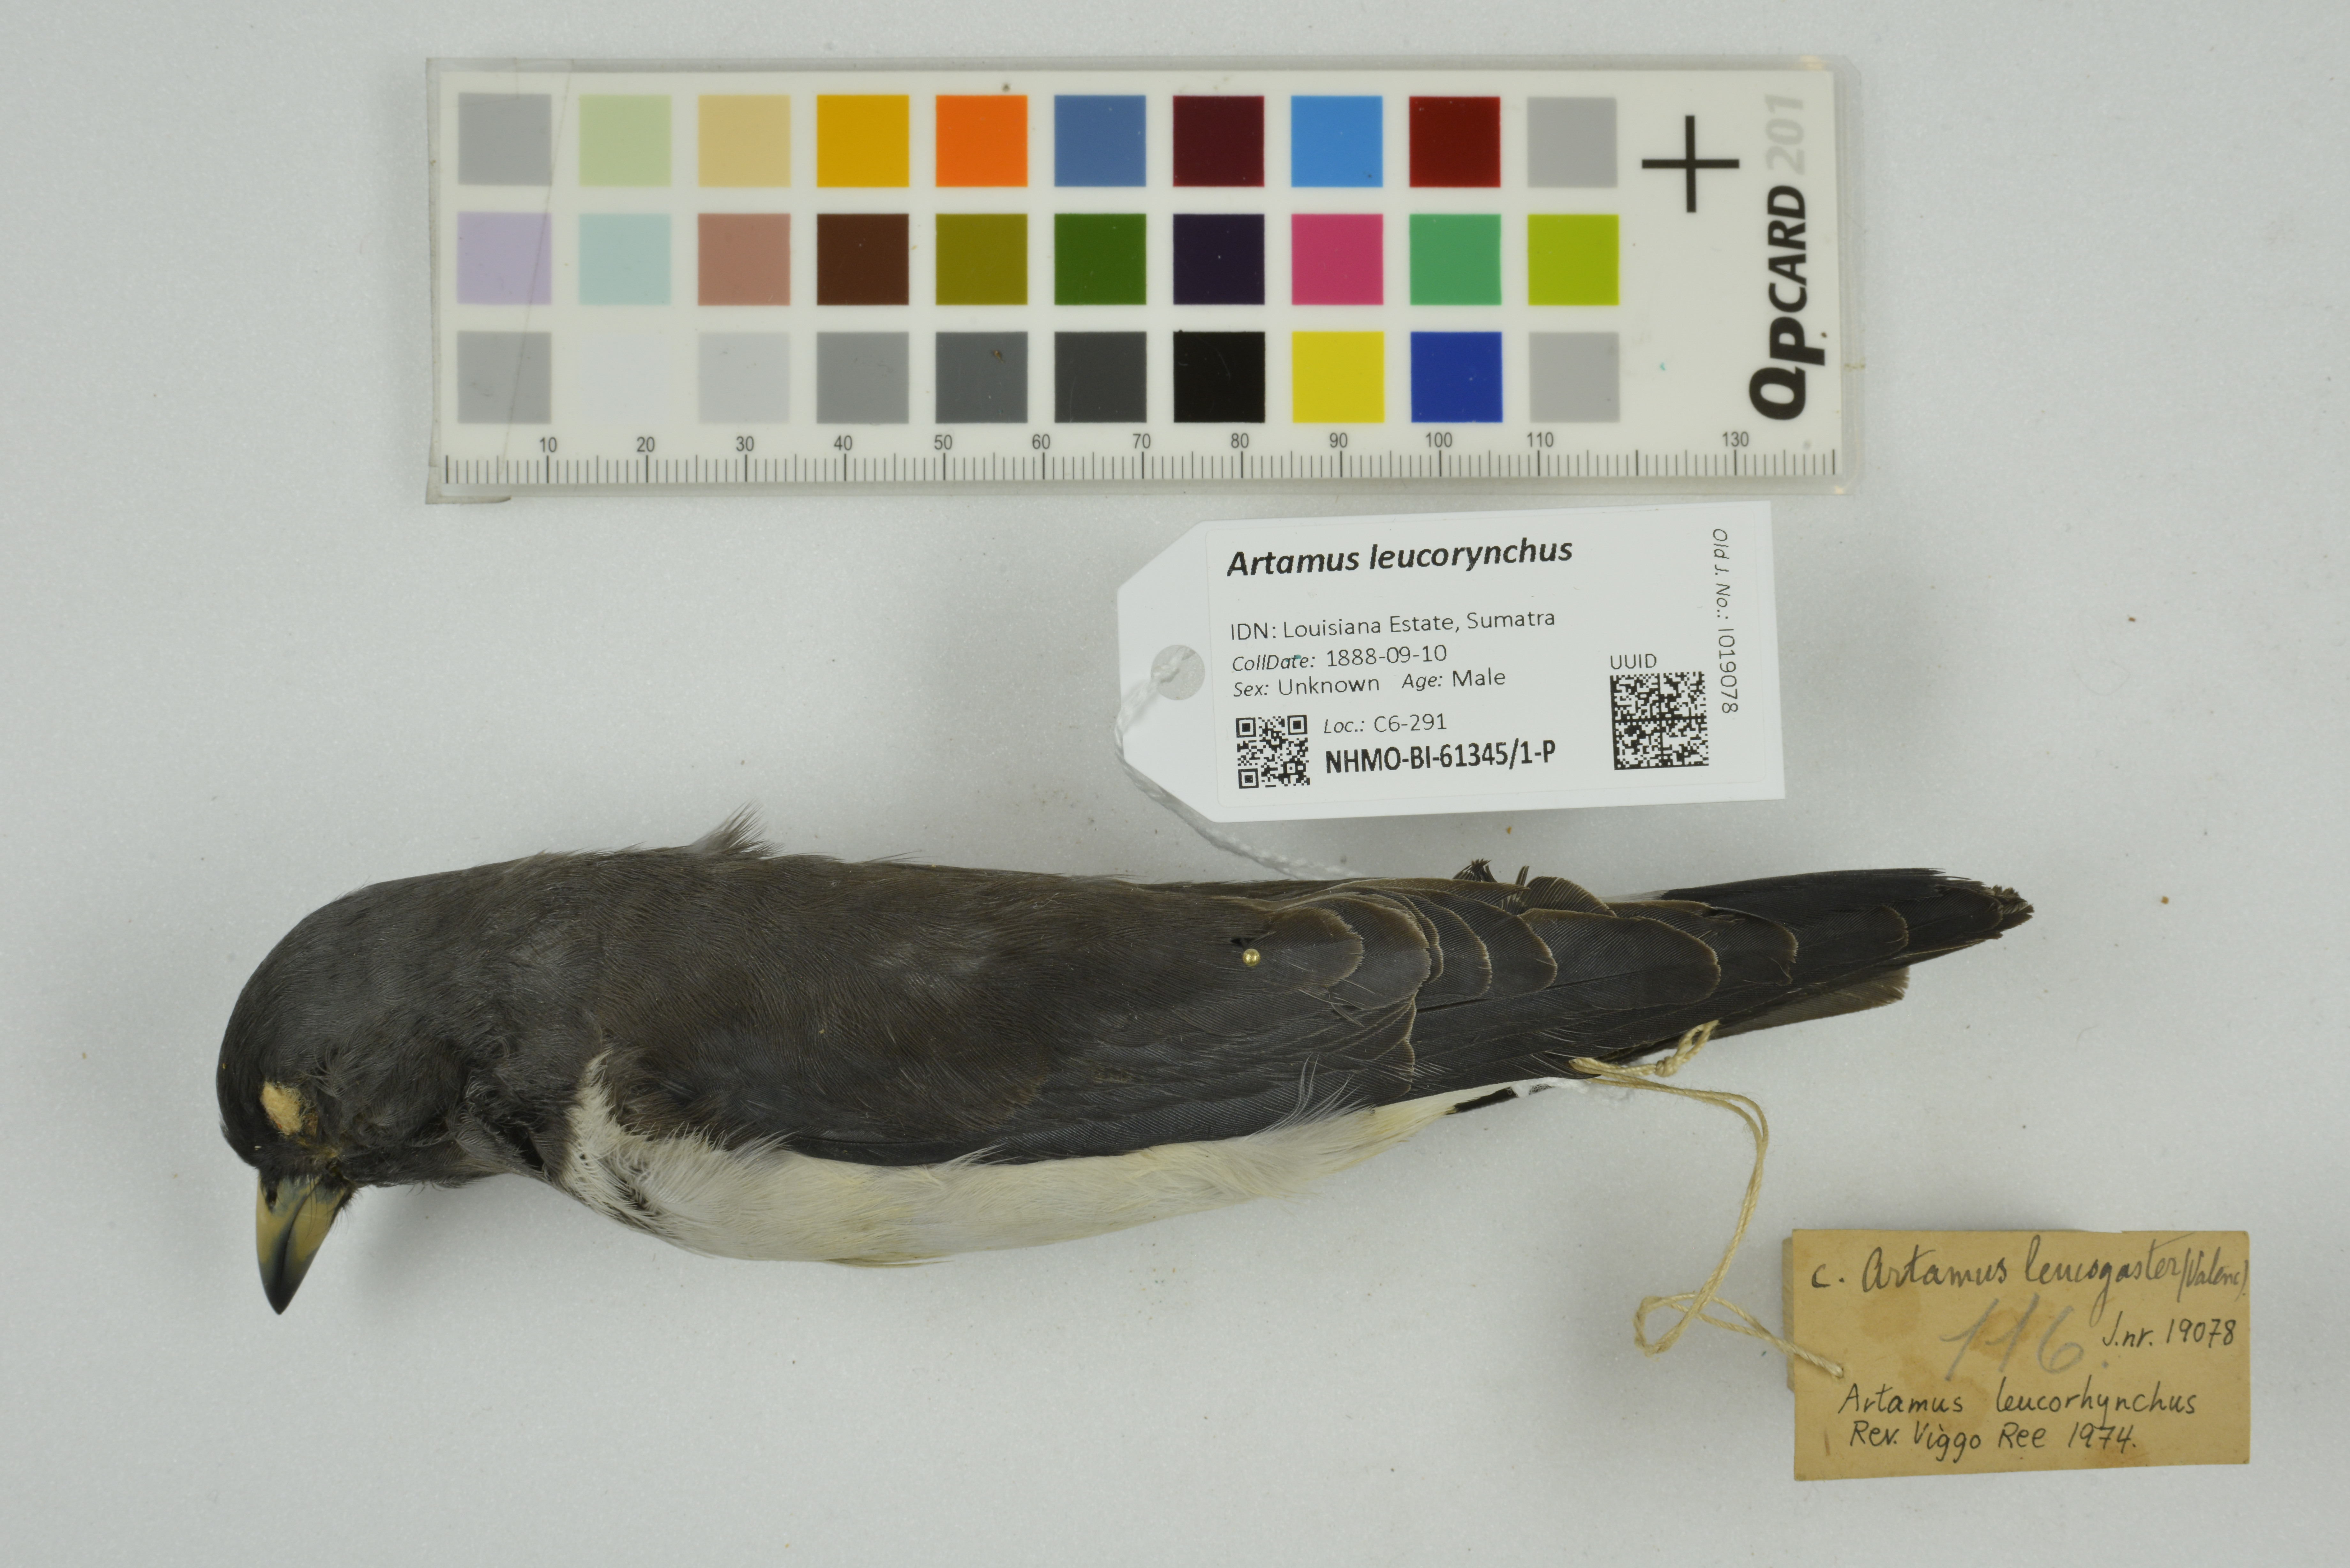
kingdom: Animalia
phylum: Chordata
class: Aves
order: Passeriformes
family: Artamidae
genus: Artamus
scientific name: Artamus leucoryn
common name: White-breasted woodswallow
